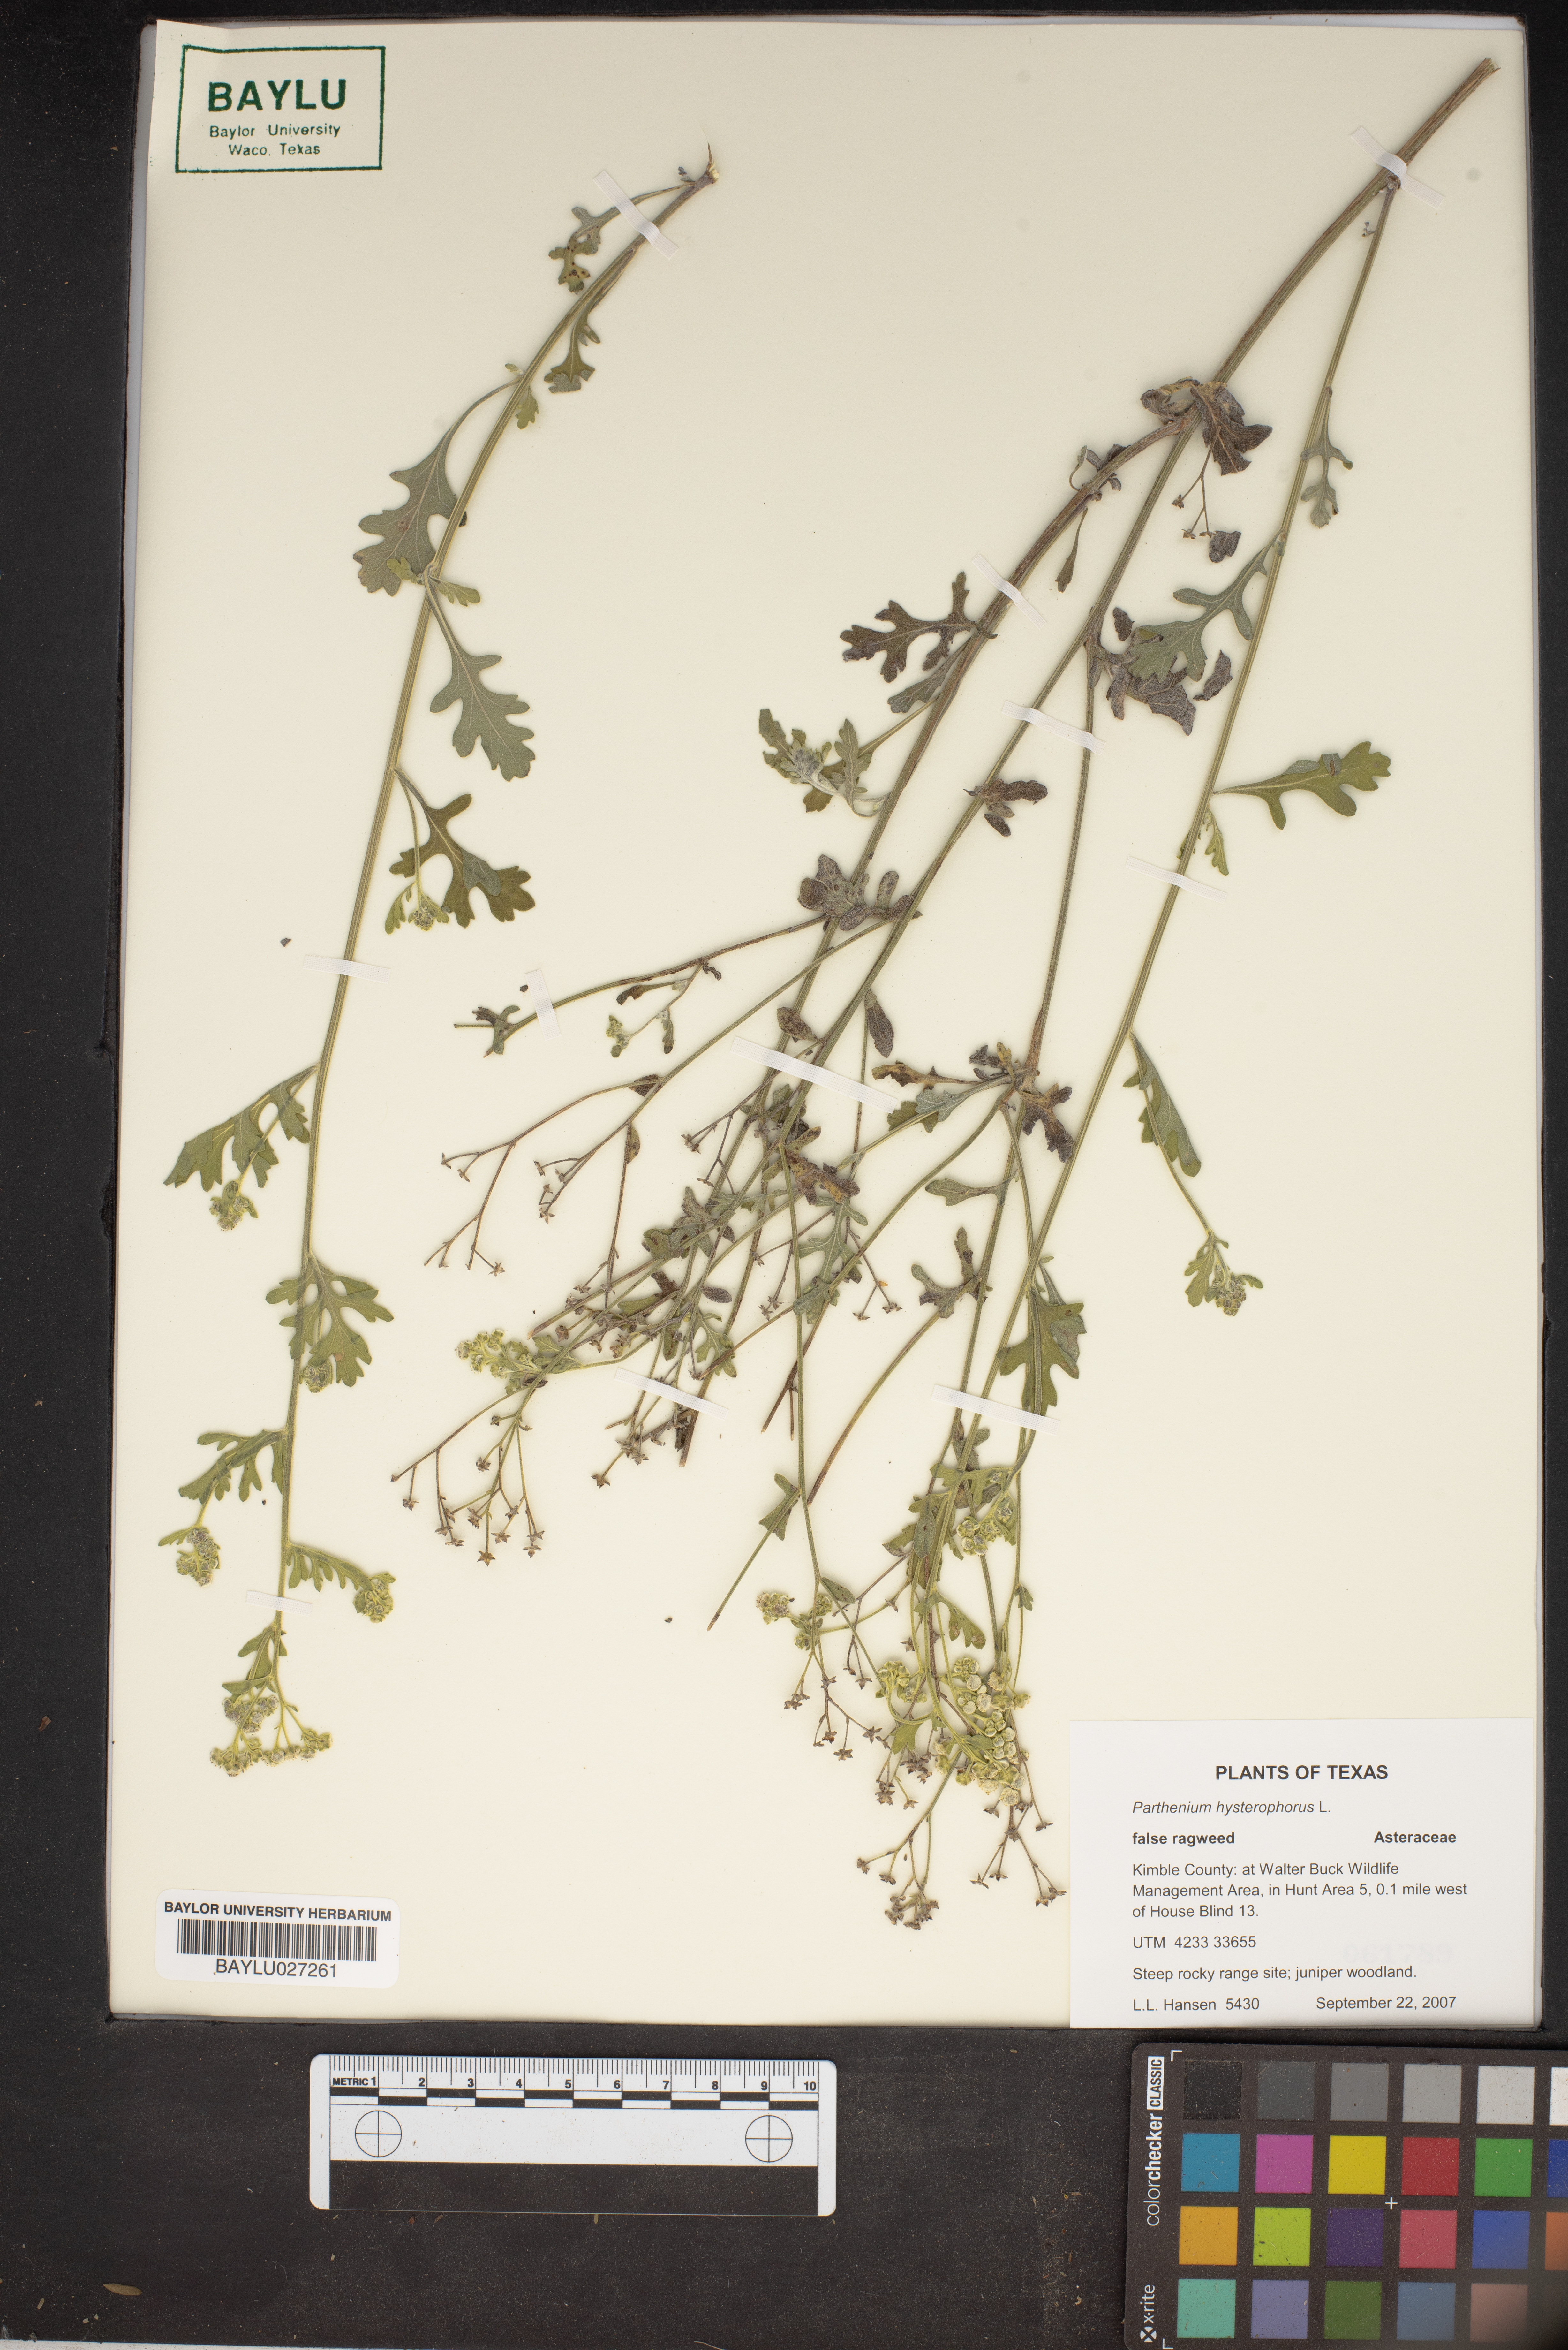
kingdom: Plantae
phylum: Tracheophyta
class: Magnoliopsida
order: Asterales
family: Asteraceae
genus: Parthenium
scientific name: Parthenium hysterophorus
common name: Santa maria feverfew
